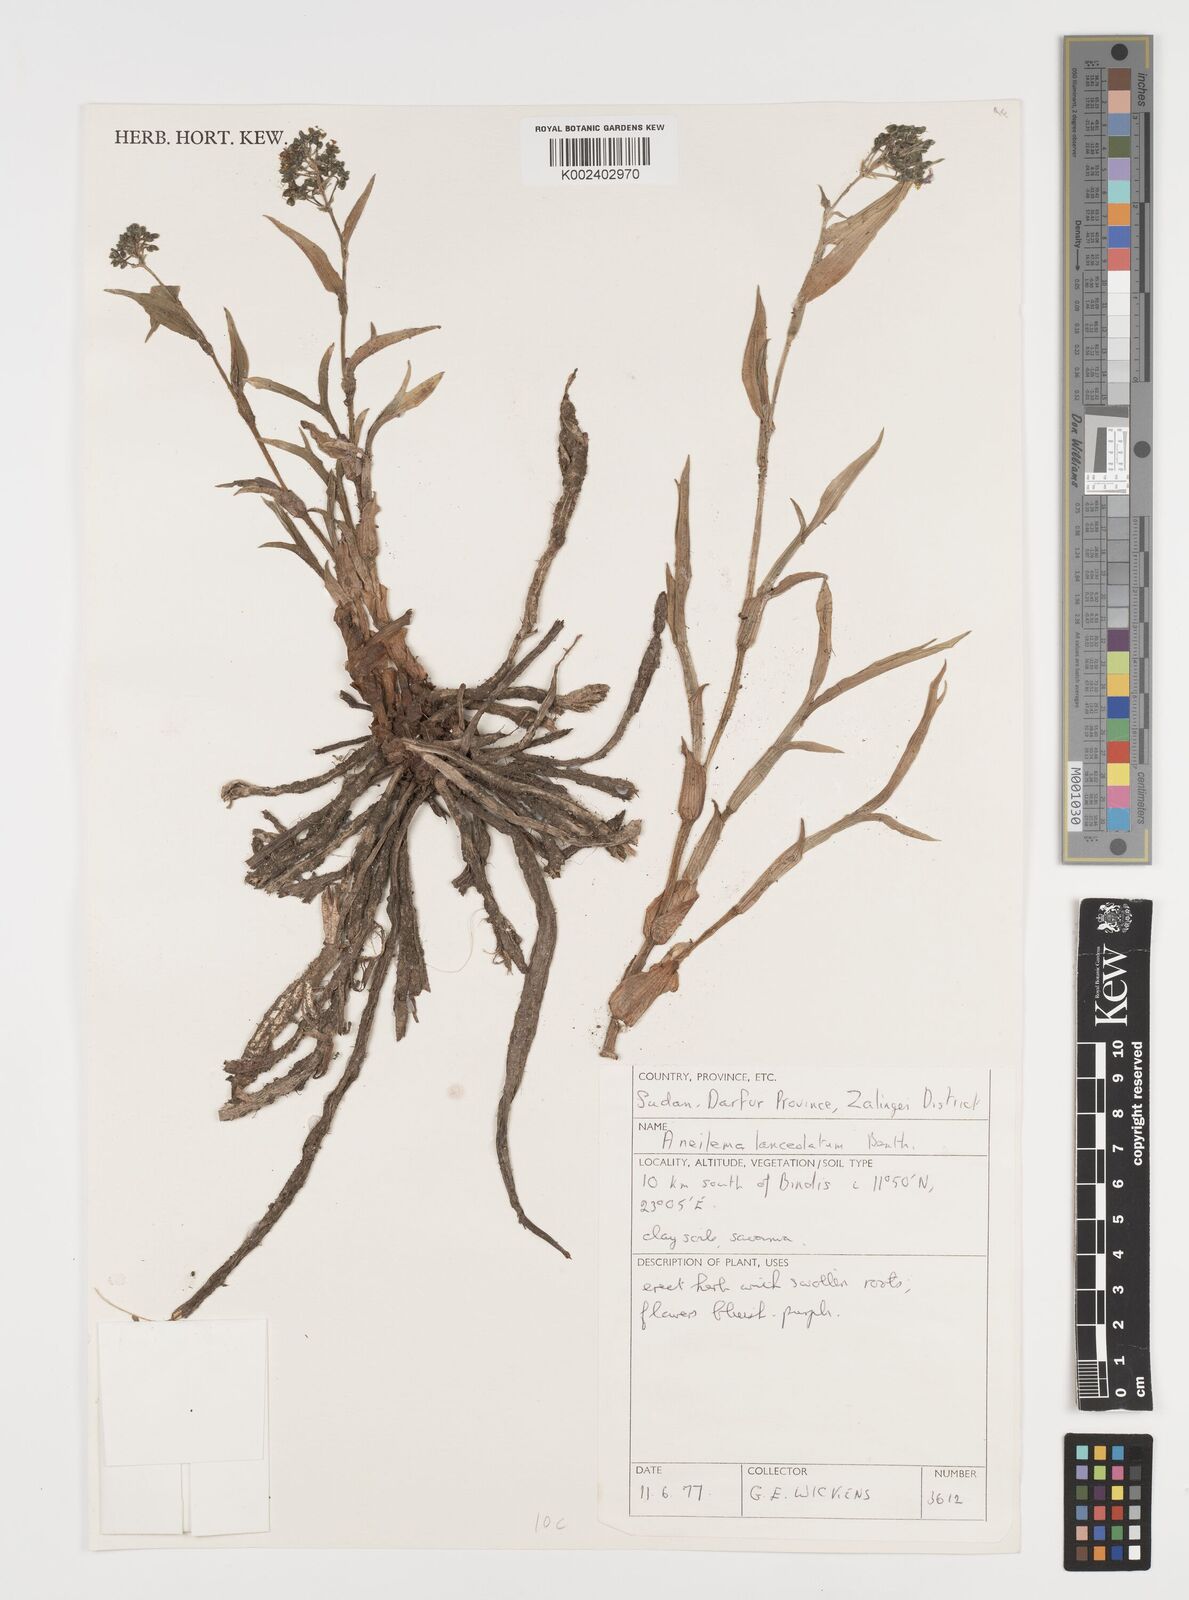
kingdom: Plantae
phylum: Tracheophyta
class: Liliopsida
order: Commelinales
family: Commelinaceae
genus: Aneilema
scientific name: Aneilema lanceolatum
